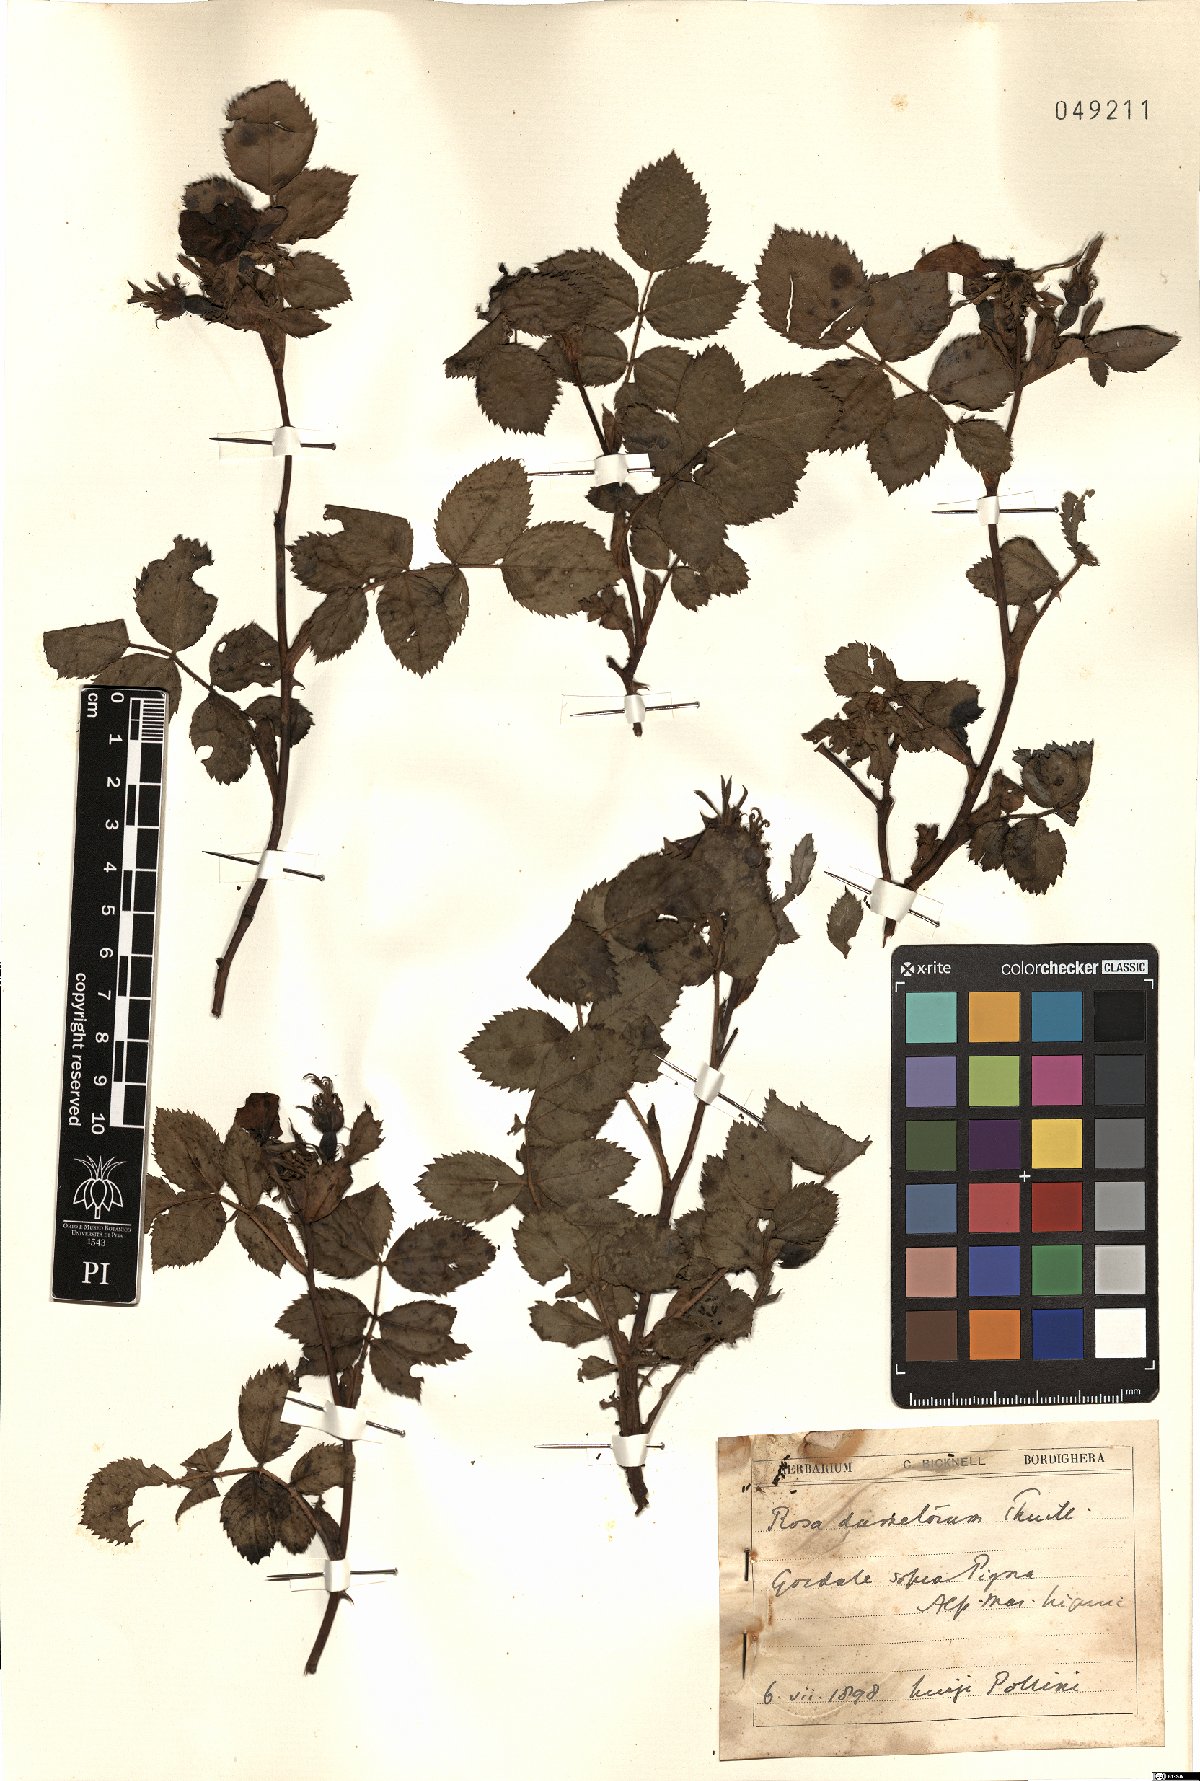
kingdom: Plantae
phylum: Tracheophyta
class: Magnoliopsida
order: Rosales
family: Rosaceae
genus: Rosa
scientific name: Rosa corymbifera
